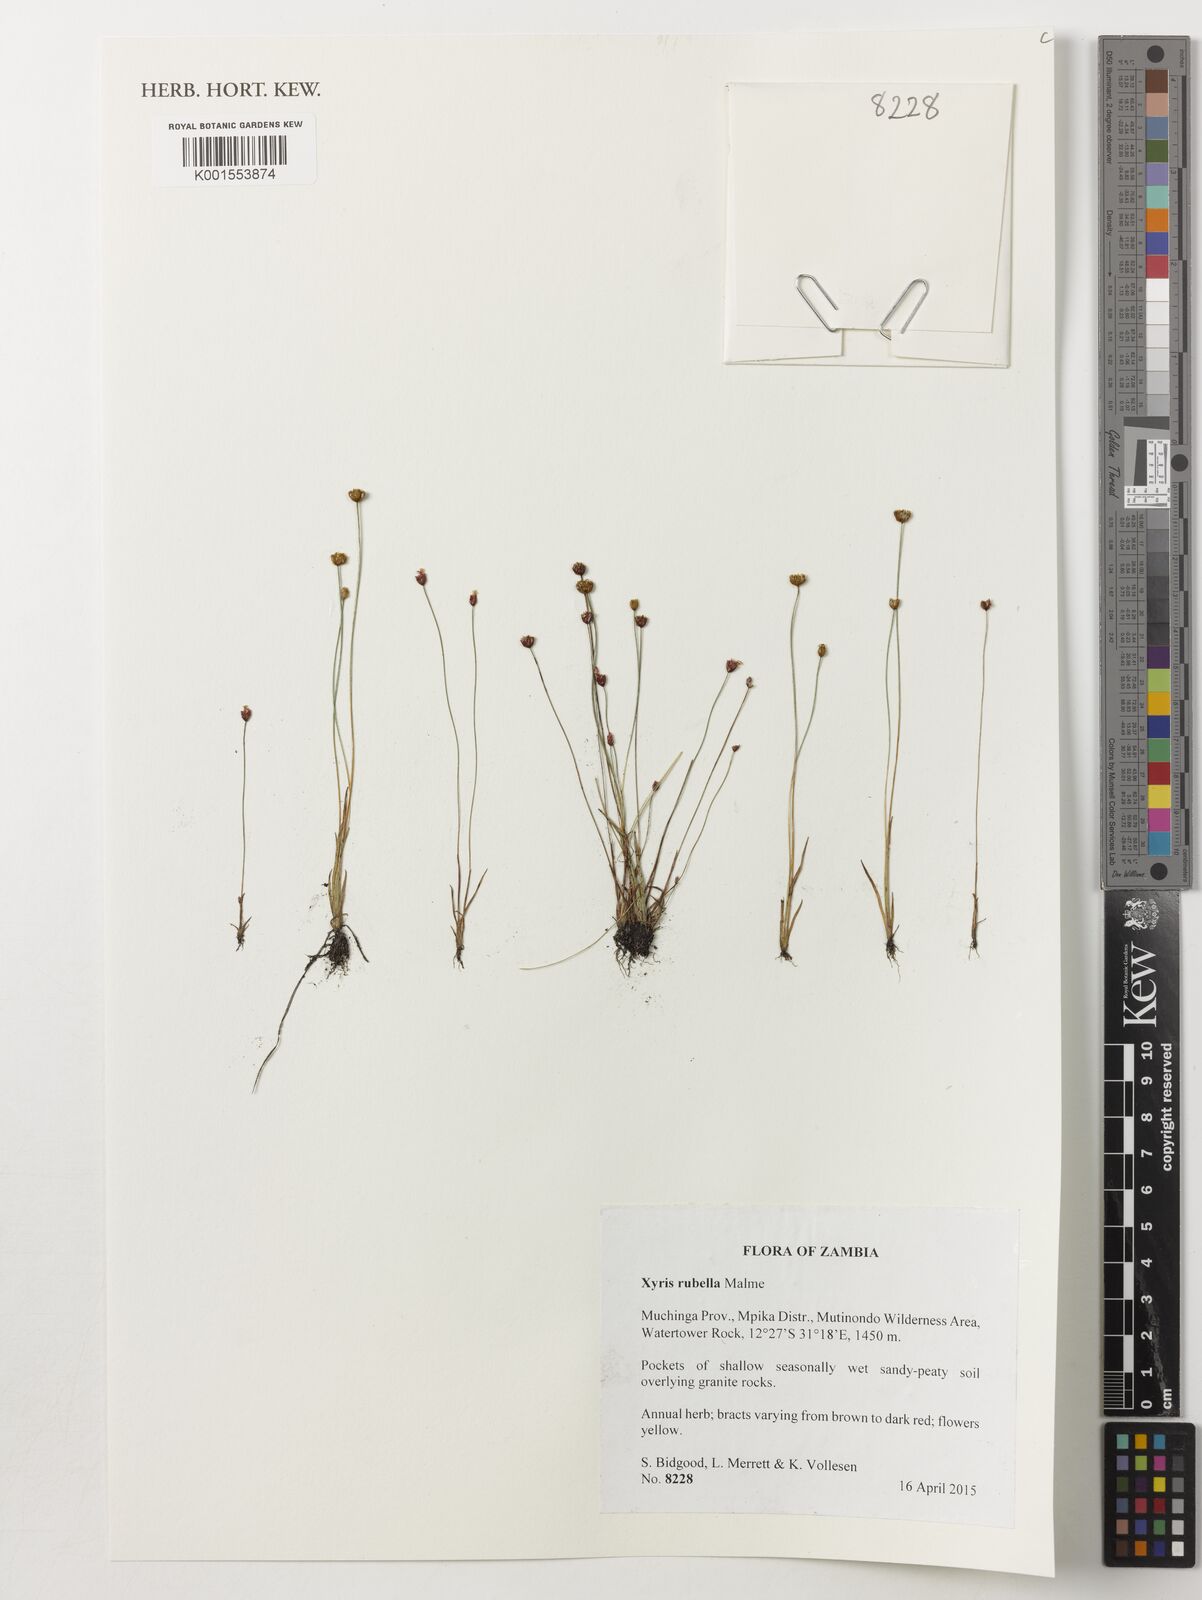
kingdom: Plantae
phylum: Tracheophyta
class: Liliopsida
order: Poales
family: Xyridaceae
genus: Xyris
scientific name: Xyris rubella
